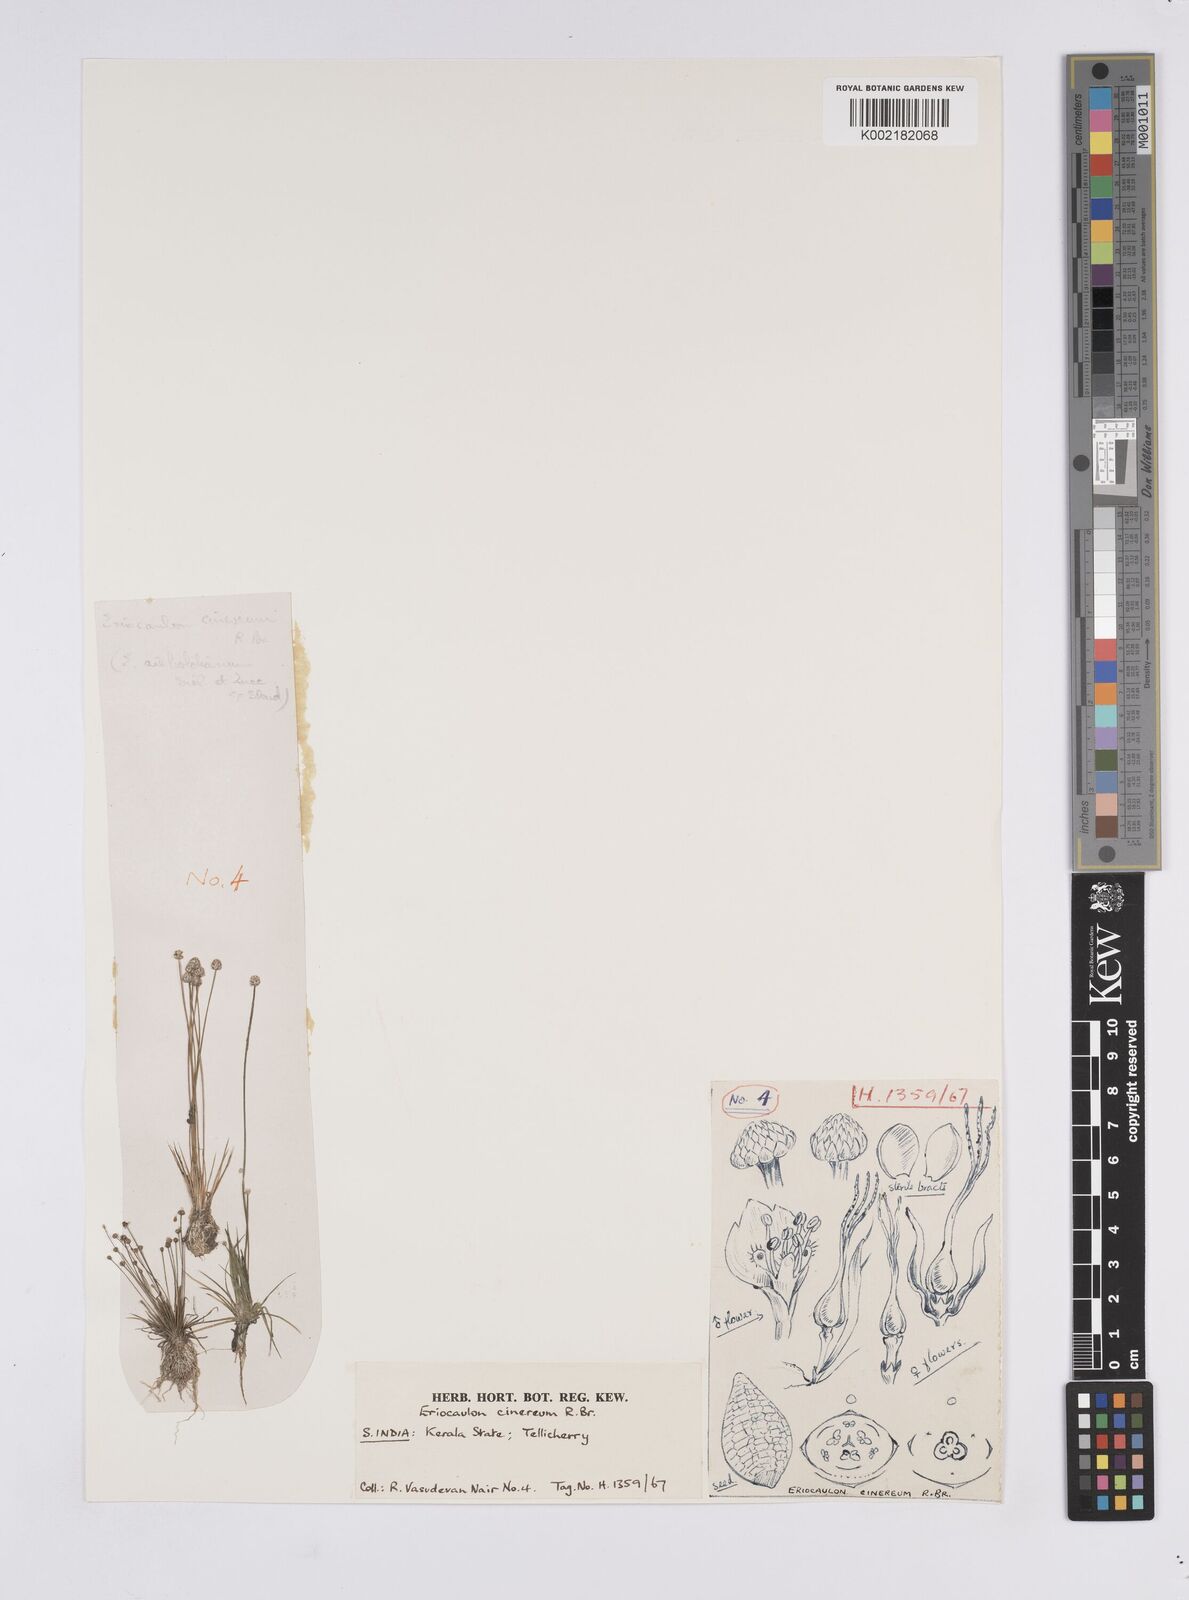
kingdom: Plantae
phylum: Tracheophyta
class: Liliopsida
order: Poales
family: Eriocaulaceae
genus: Eriocaulon
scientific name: Eriocaulon cinereum
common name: Ashy pipewort
